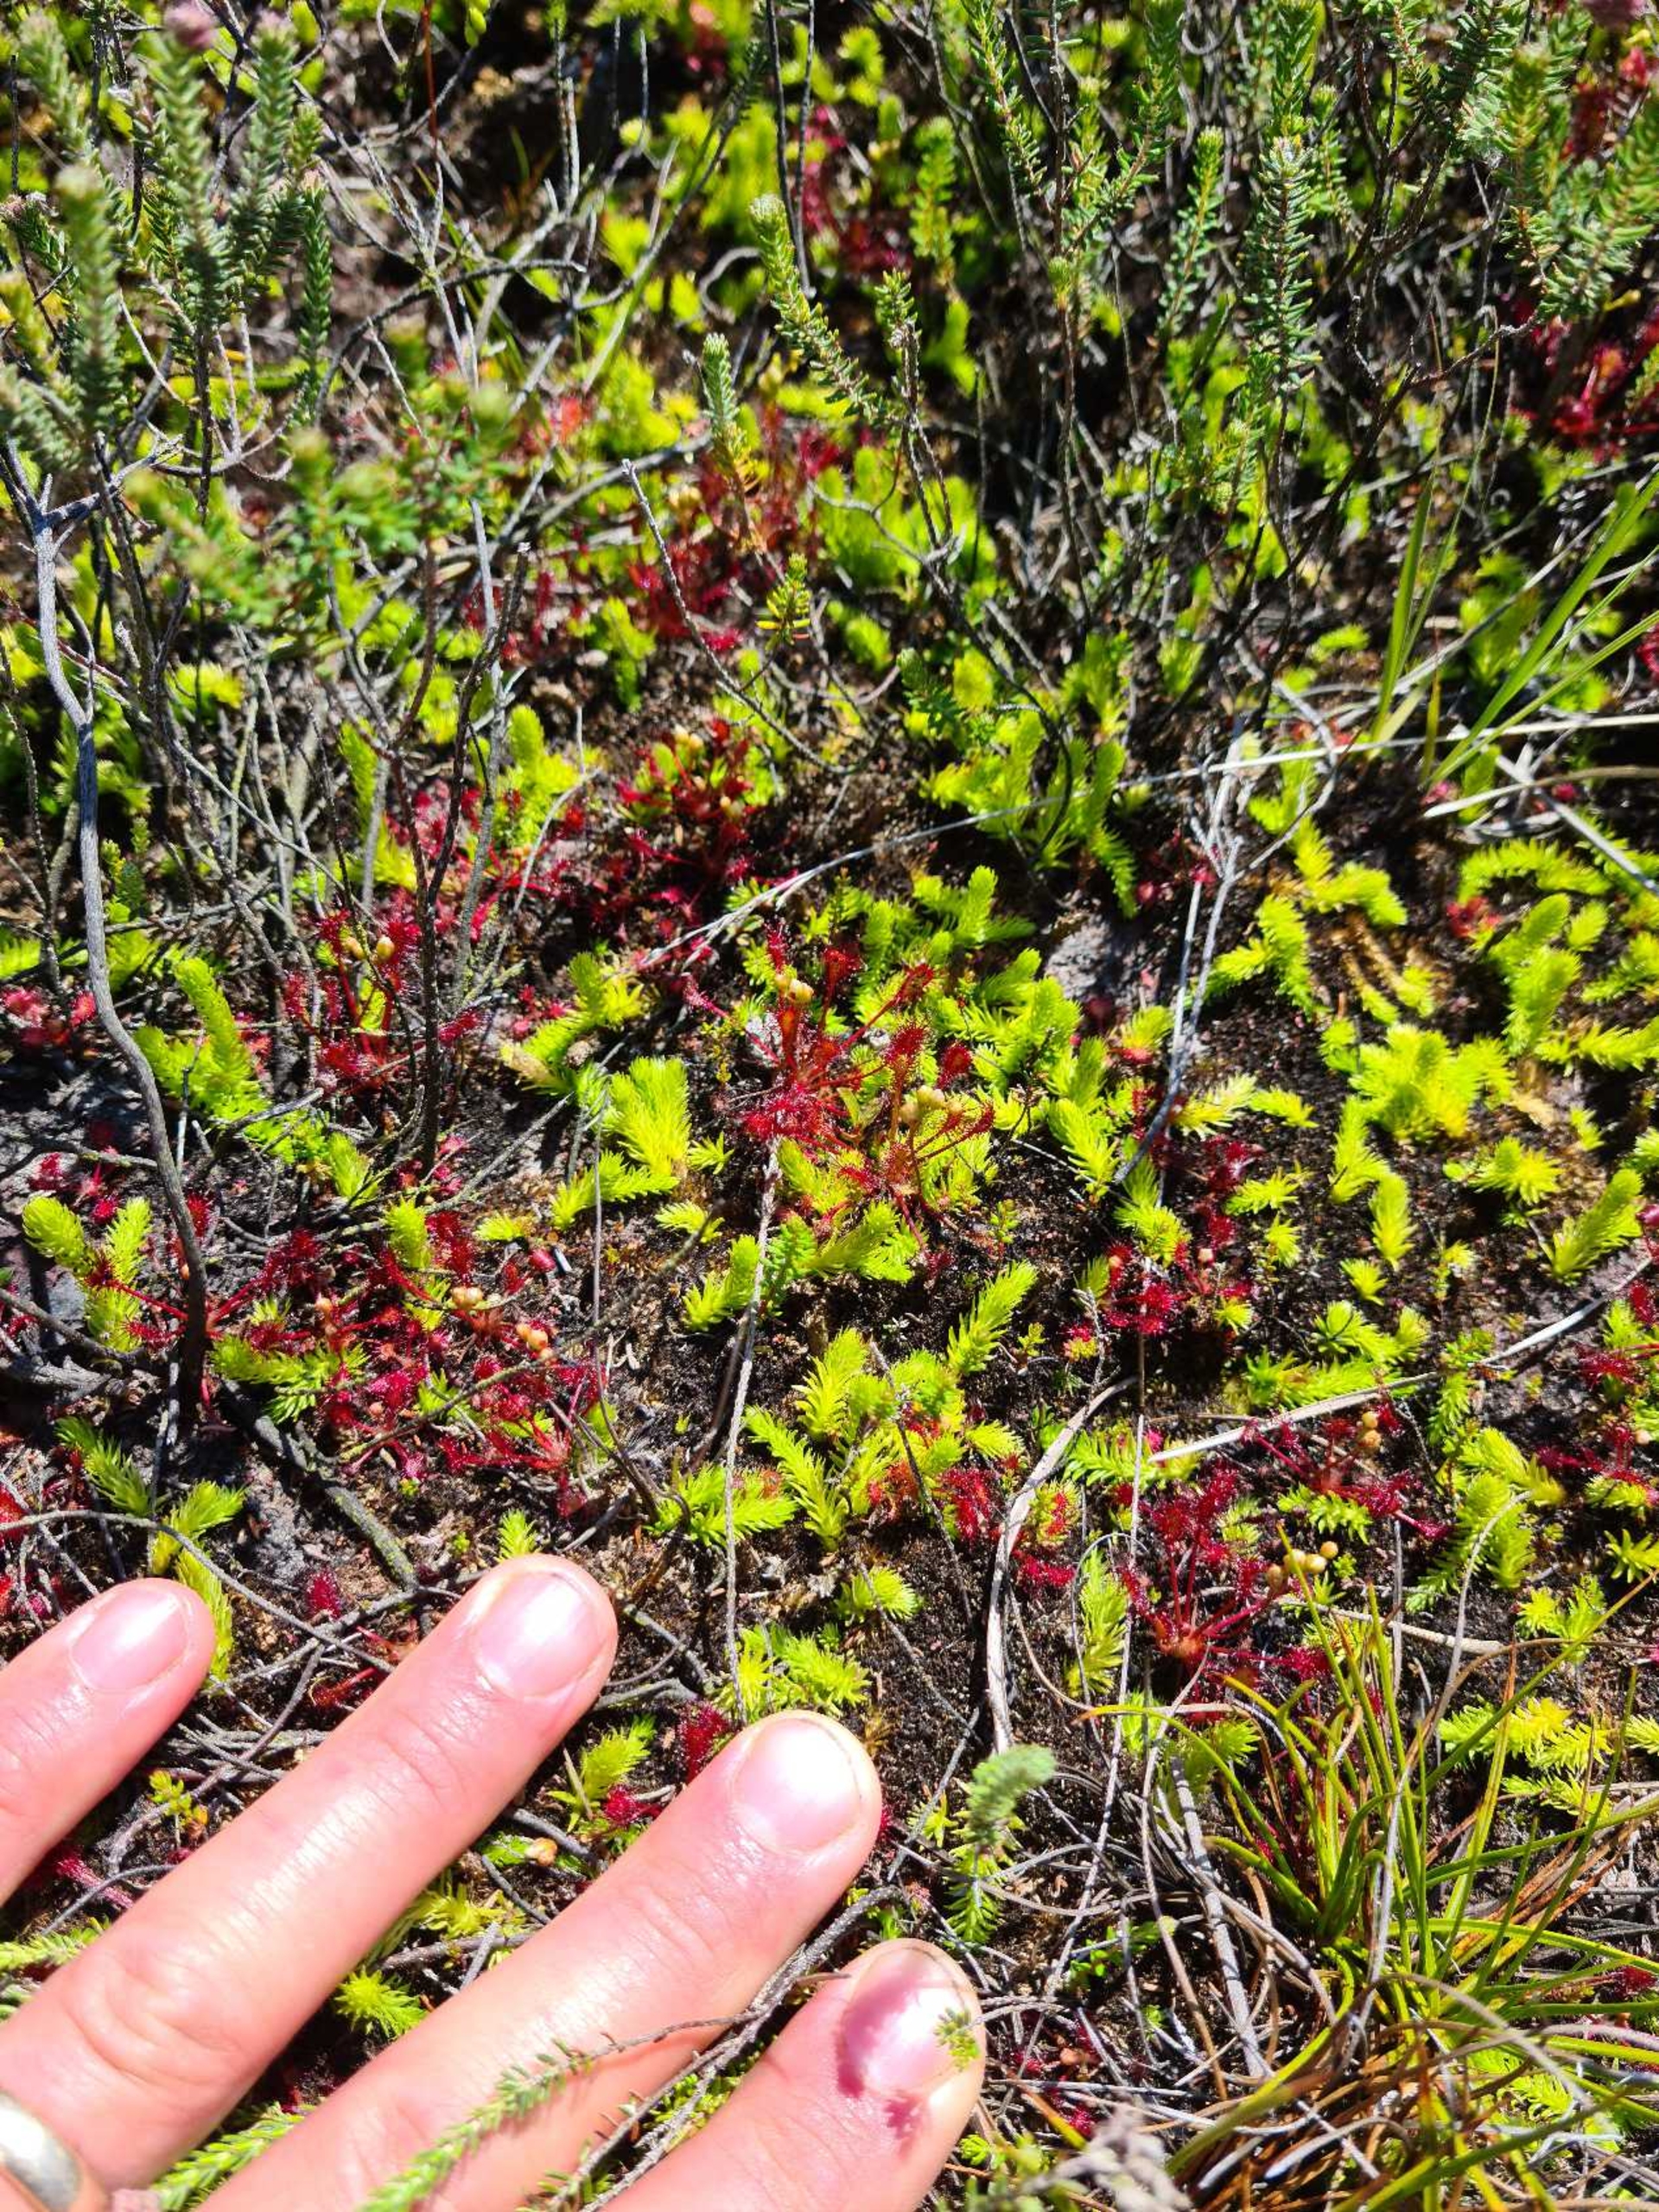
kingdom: Plantae
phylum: Tracheophyta
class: Magnoliopsida
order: Caryophyllales
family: Droseraceae
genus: Drosera
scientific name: Drosera intermedia
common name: Liden soldug
